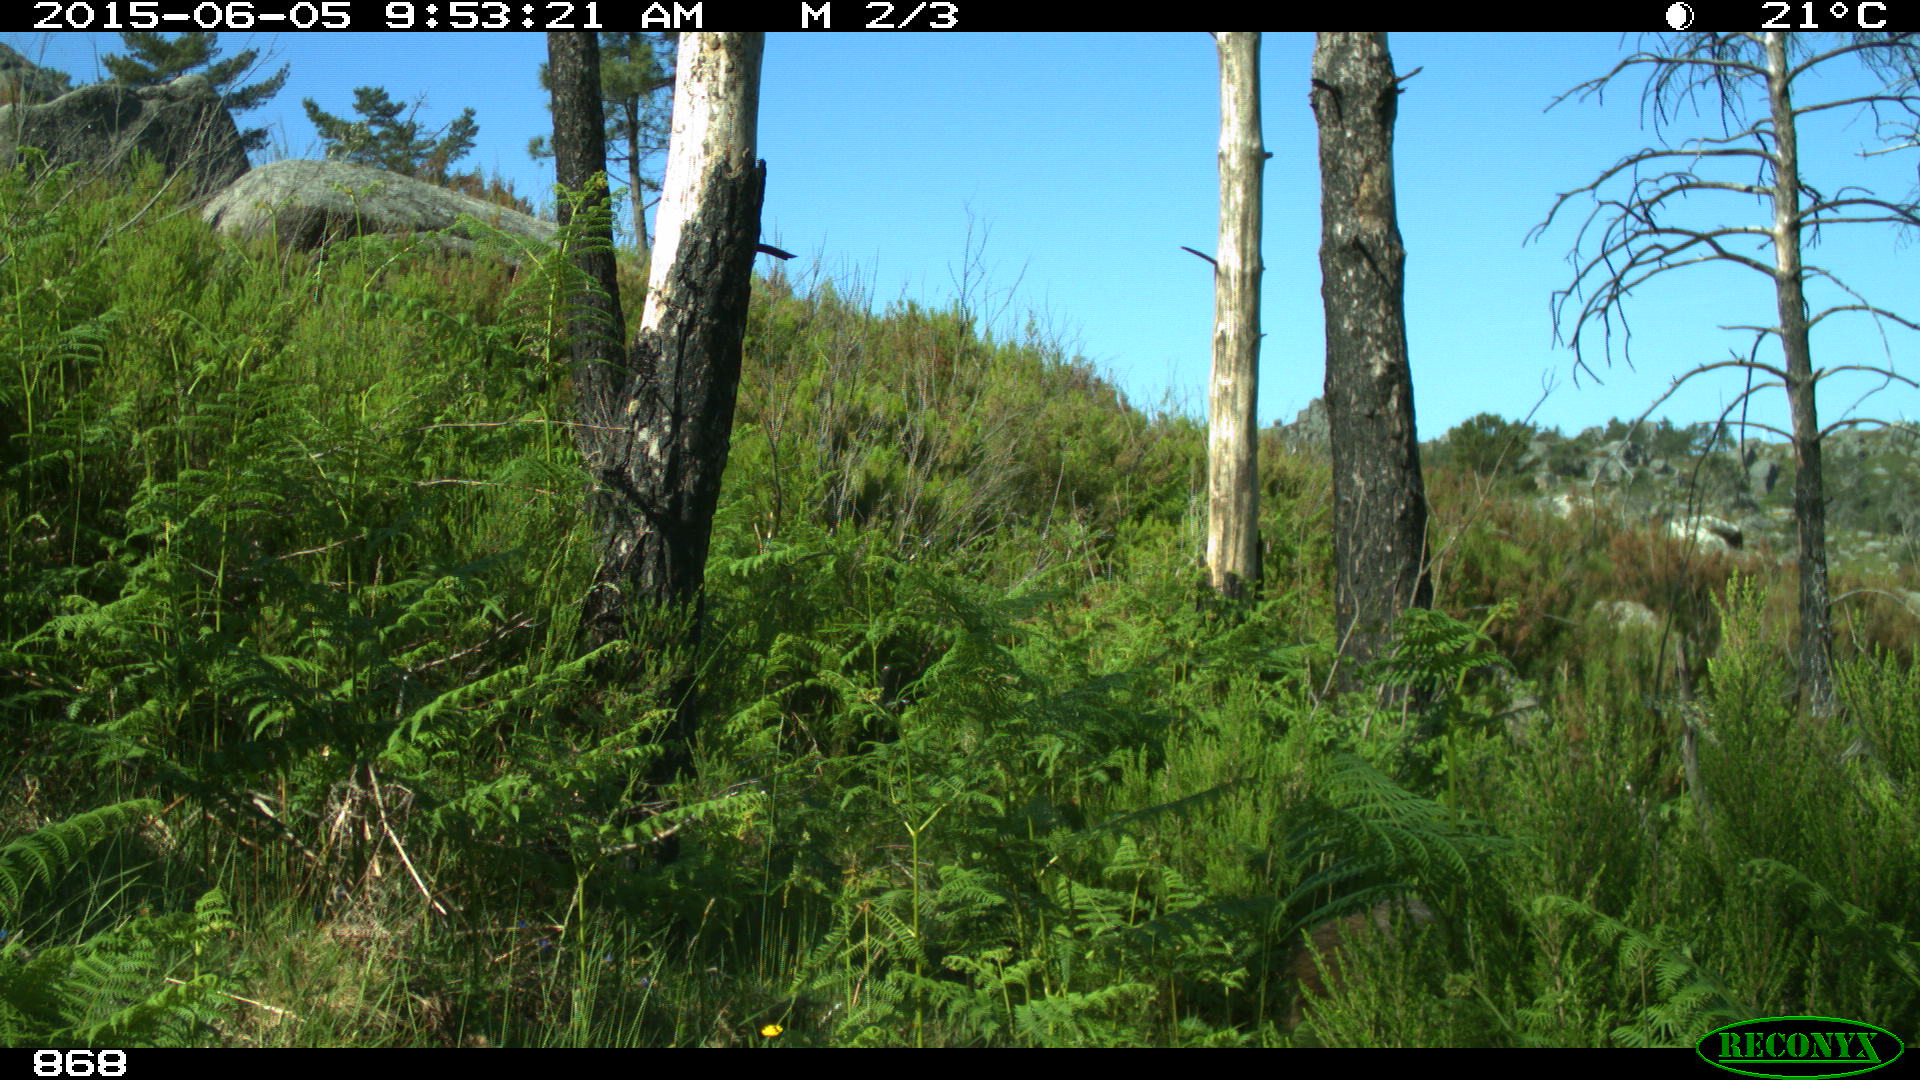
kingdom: Animalia
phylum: Chordata
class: Mammalia
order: Artiodactyla
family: Suidae
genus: Sus
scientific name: Sus scrofa
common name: Wild boar
